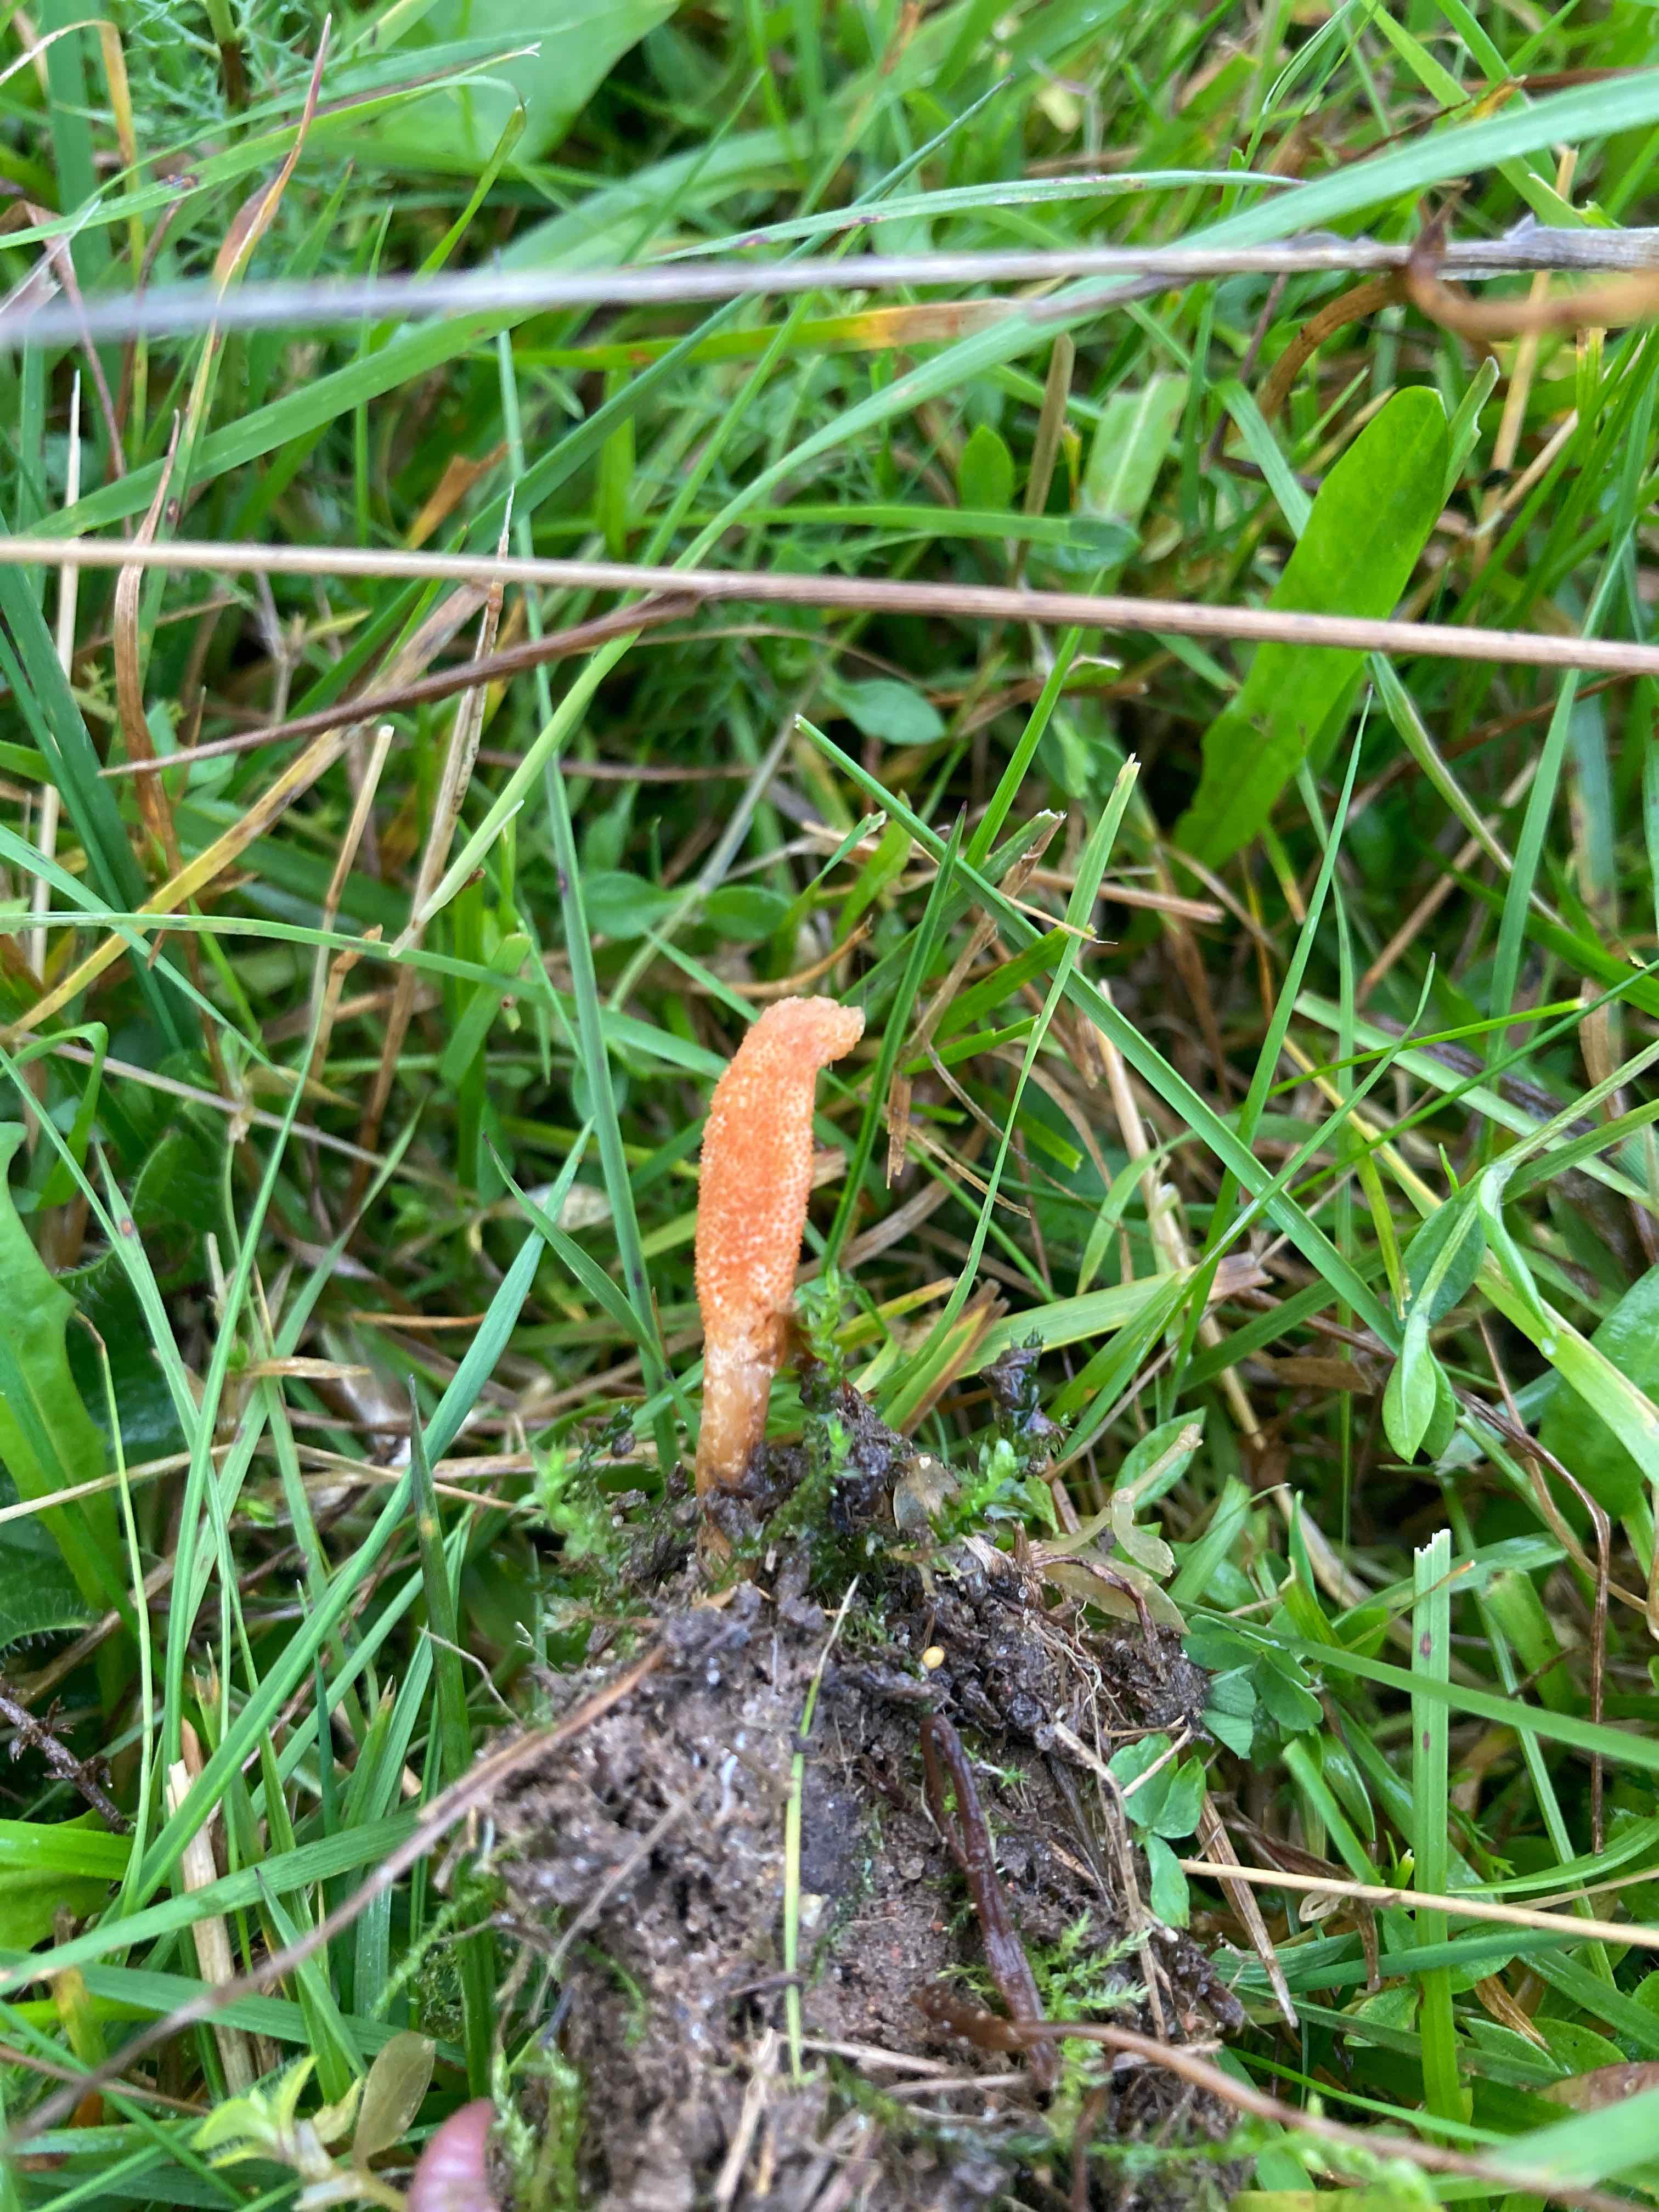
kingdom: Fungi
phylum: Ascomycota
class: Sordariomycetes
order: Hypocreales
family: Cordycipitaceae
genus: Cordyceps
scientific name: Cordyceps militaris
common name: puppe-snyltekølle
